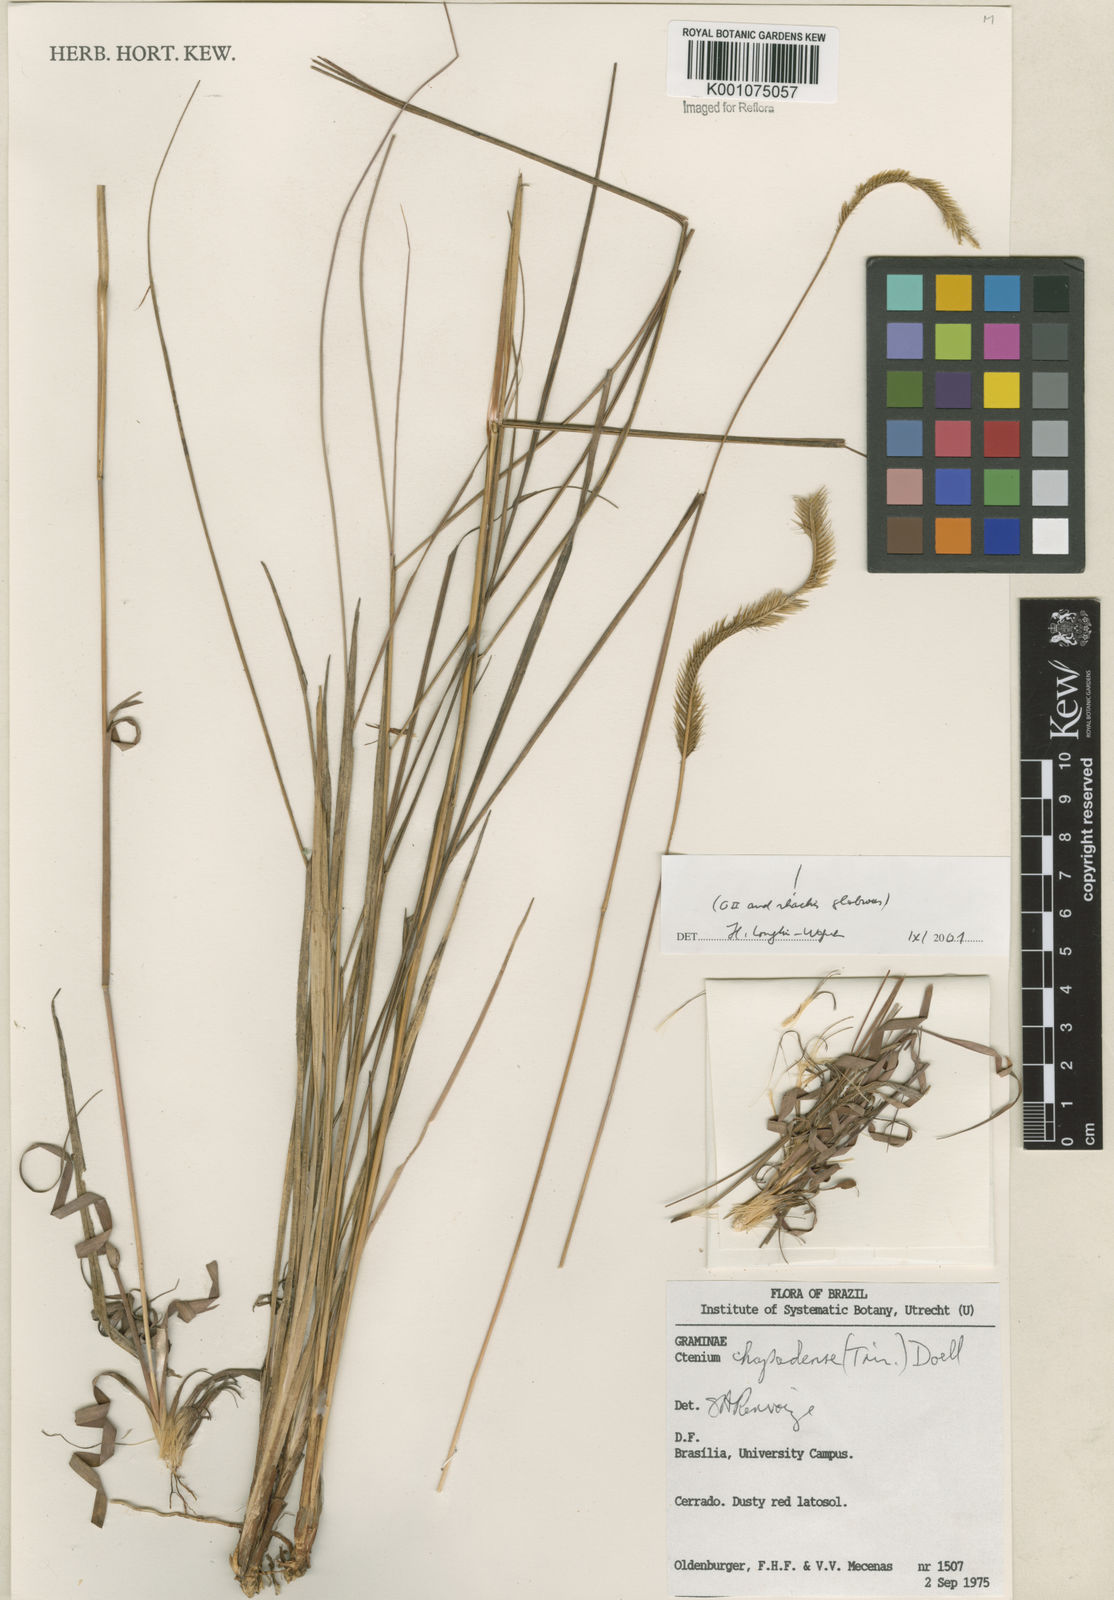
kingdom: Plantae
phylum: Tracheophyta
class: Liliopsida
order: Poales
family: Poaceae
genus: Ctenium
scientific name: Ctenium
